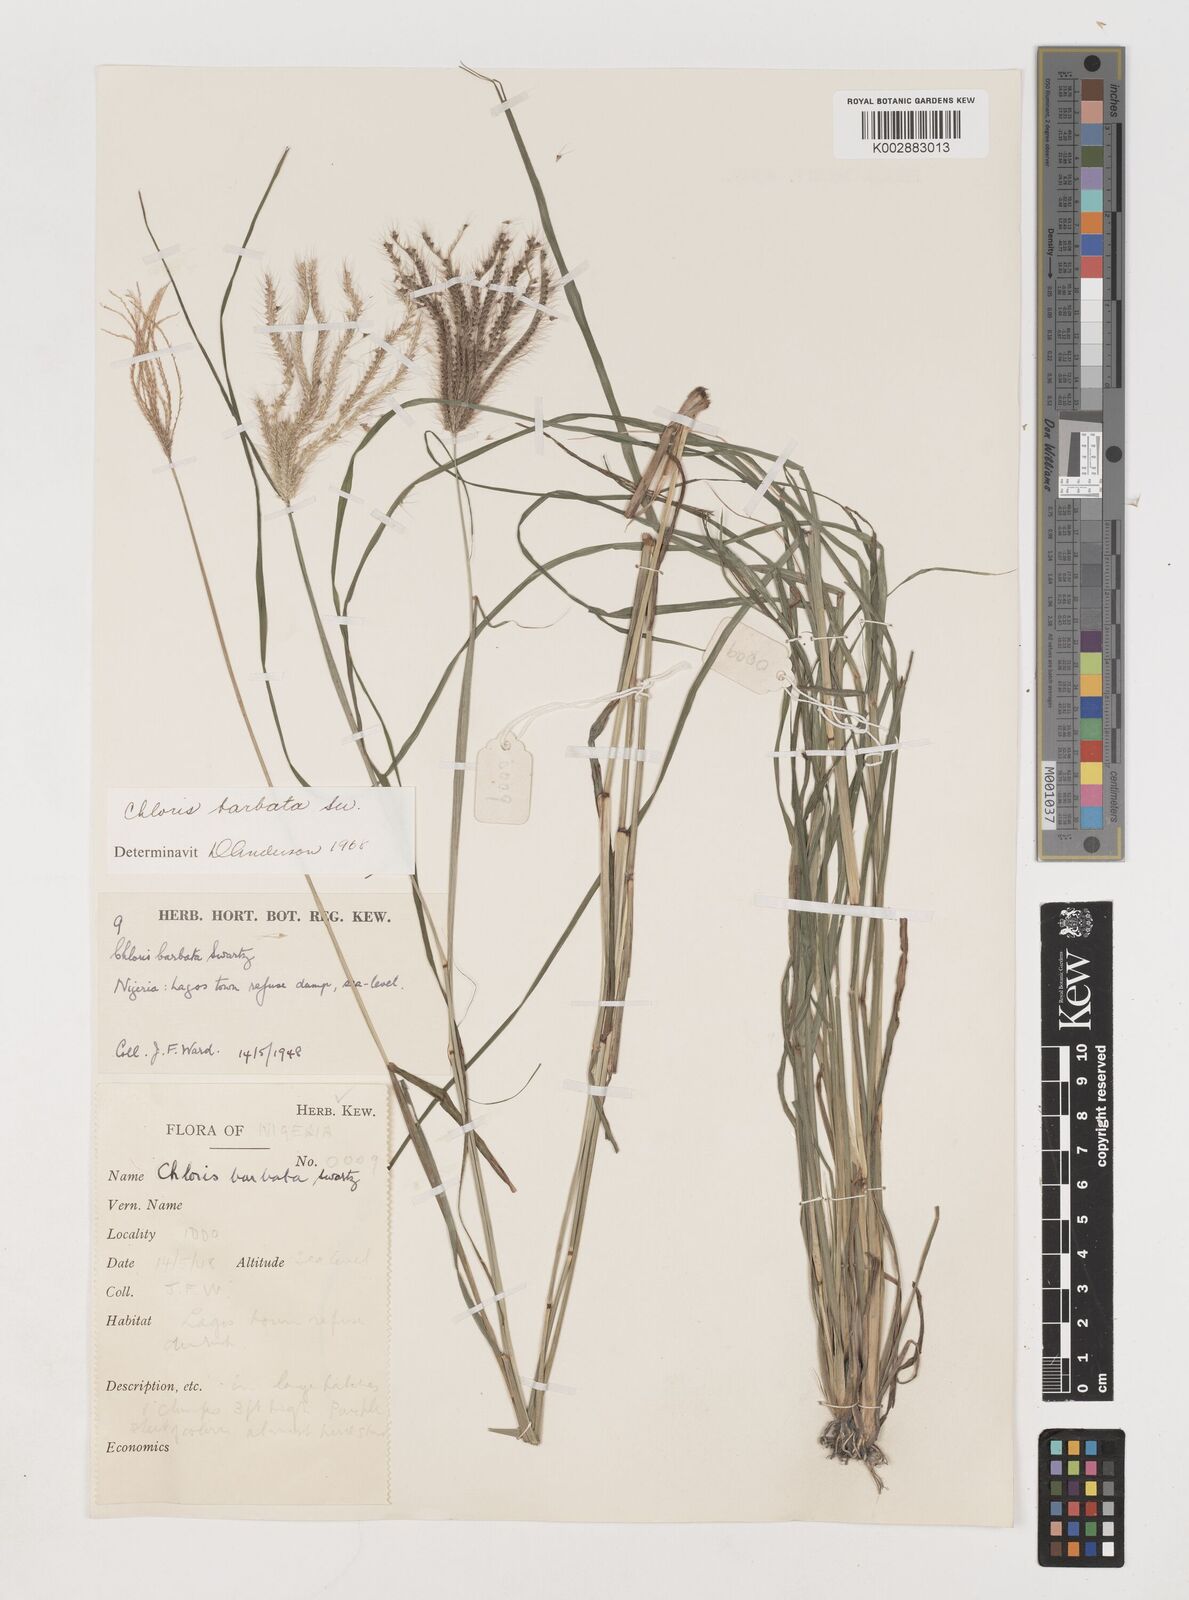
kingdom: Plantae
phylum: Tracheophyta
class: Liliopsida
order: Poales
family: Poaceae
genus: Chloris
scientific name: Chloris barbata
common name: Swollen fingergrass
